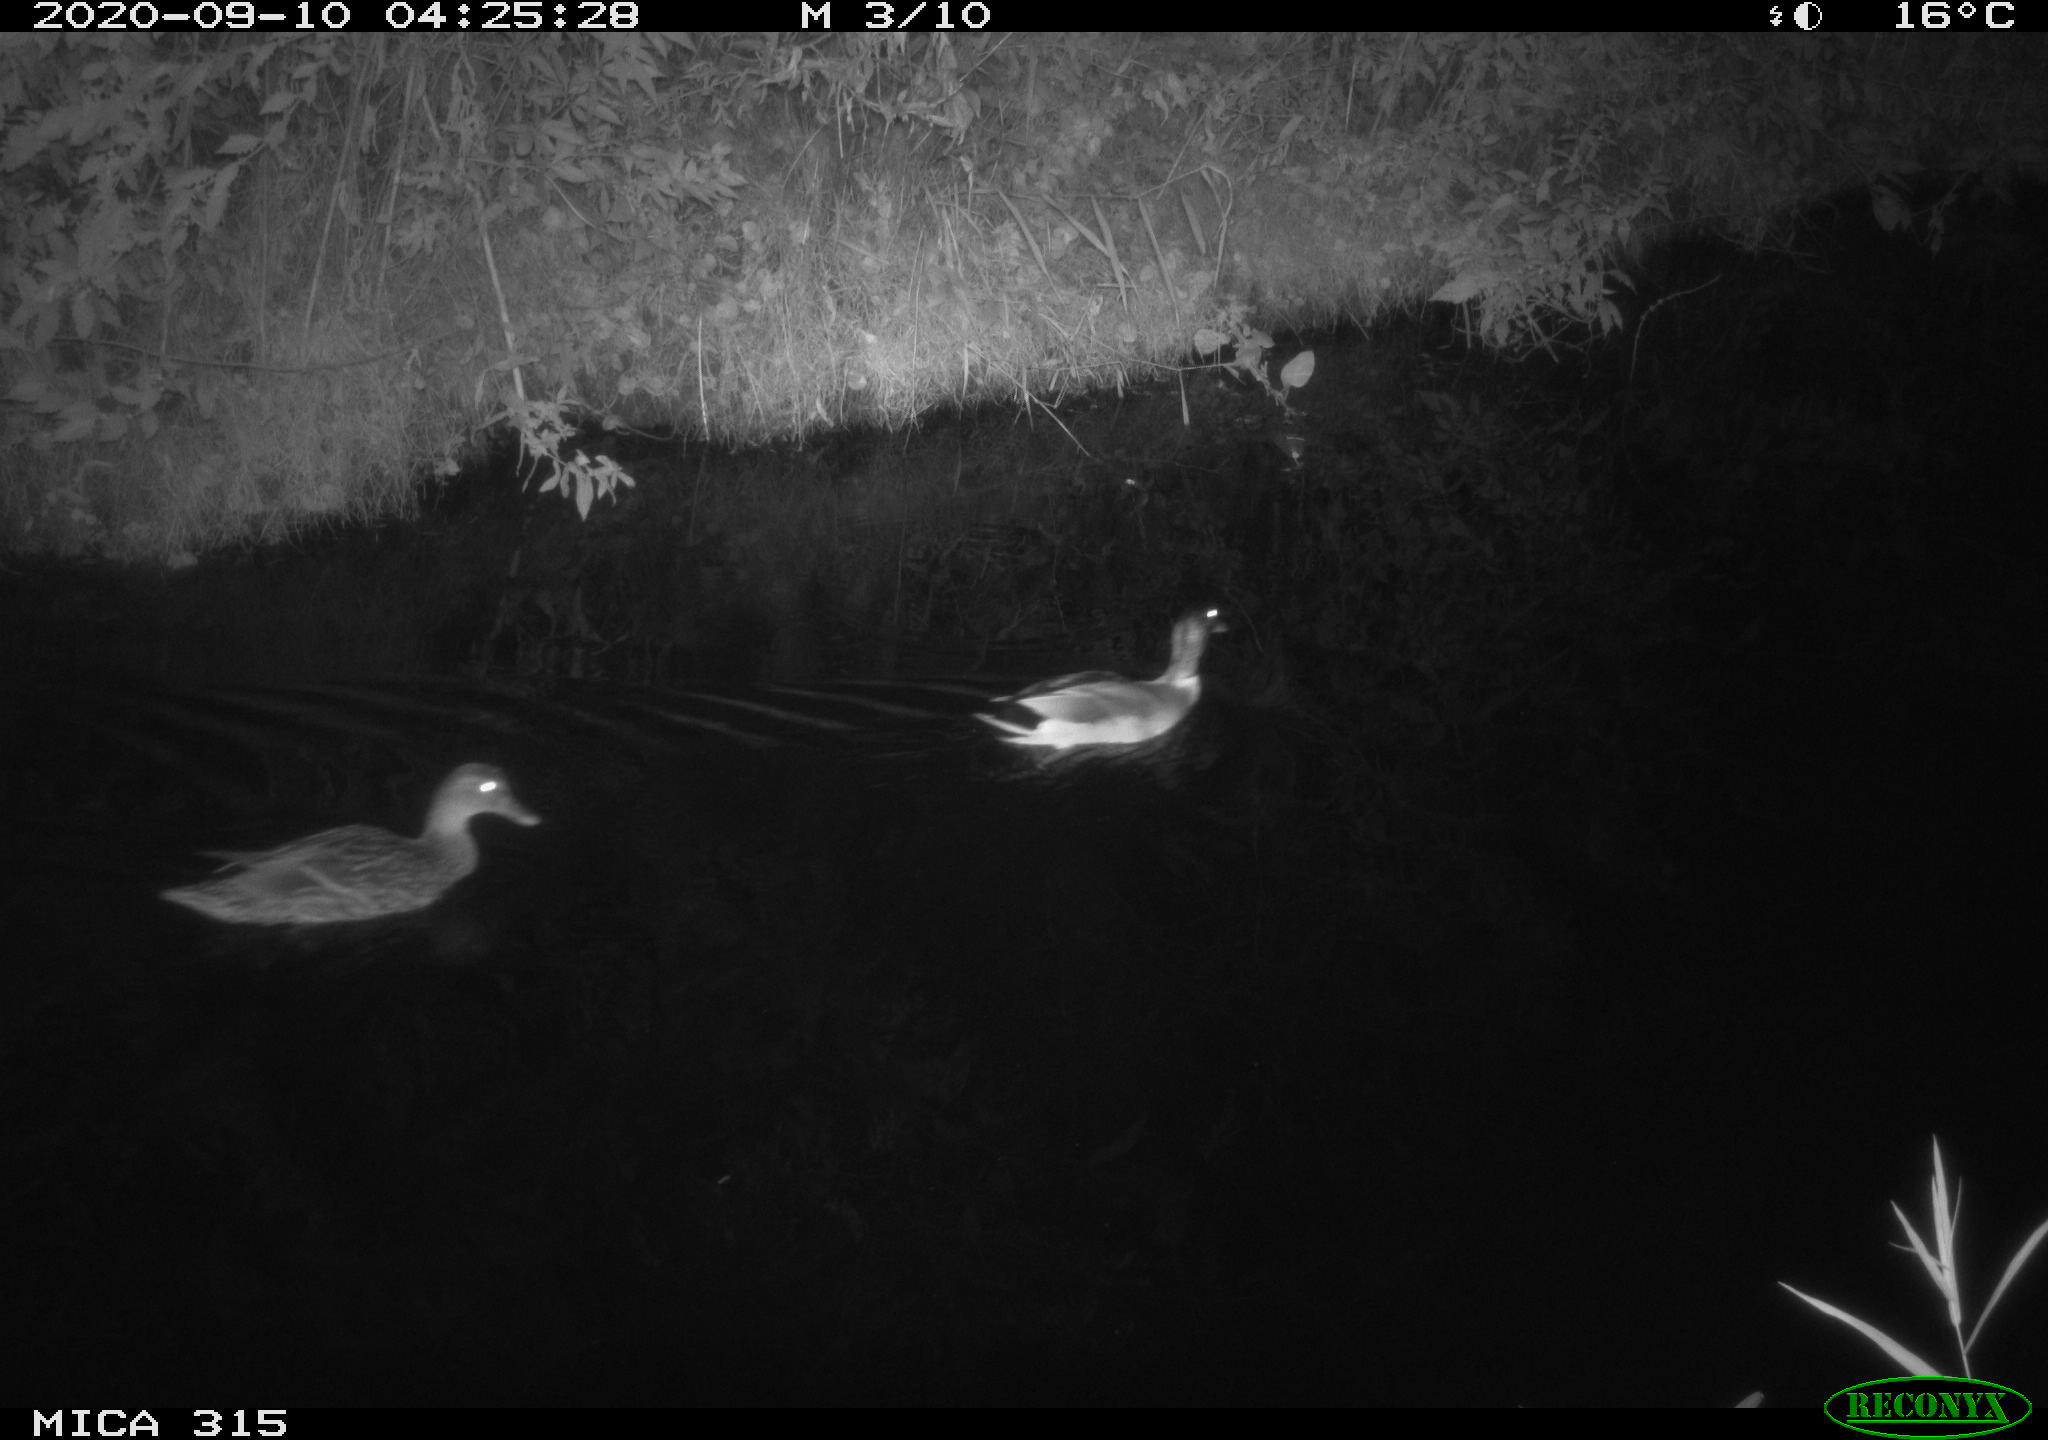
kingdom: Animalia
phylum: Chordata
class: Aves
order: Anseriformes
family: Anatidae
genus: Anas
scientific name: Anas platyrhynchos
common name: Mallard
